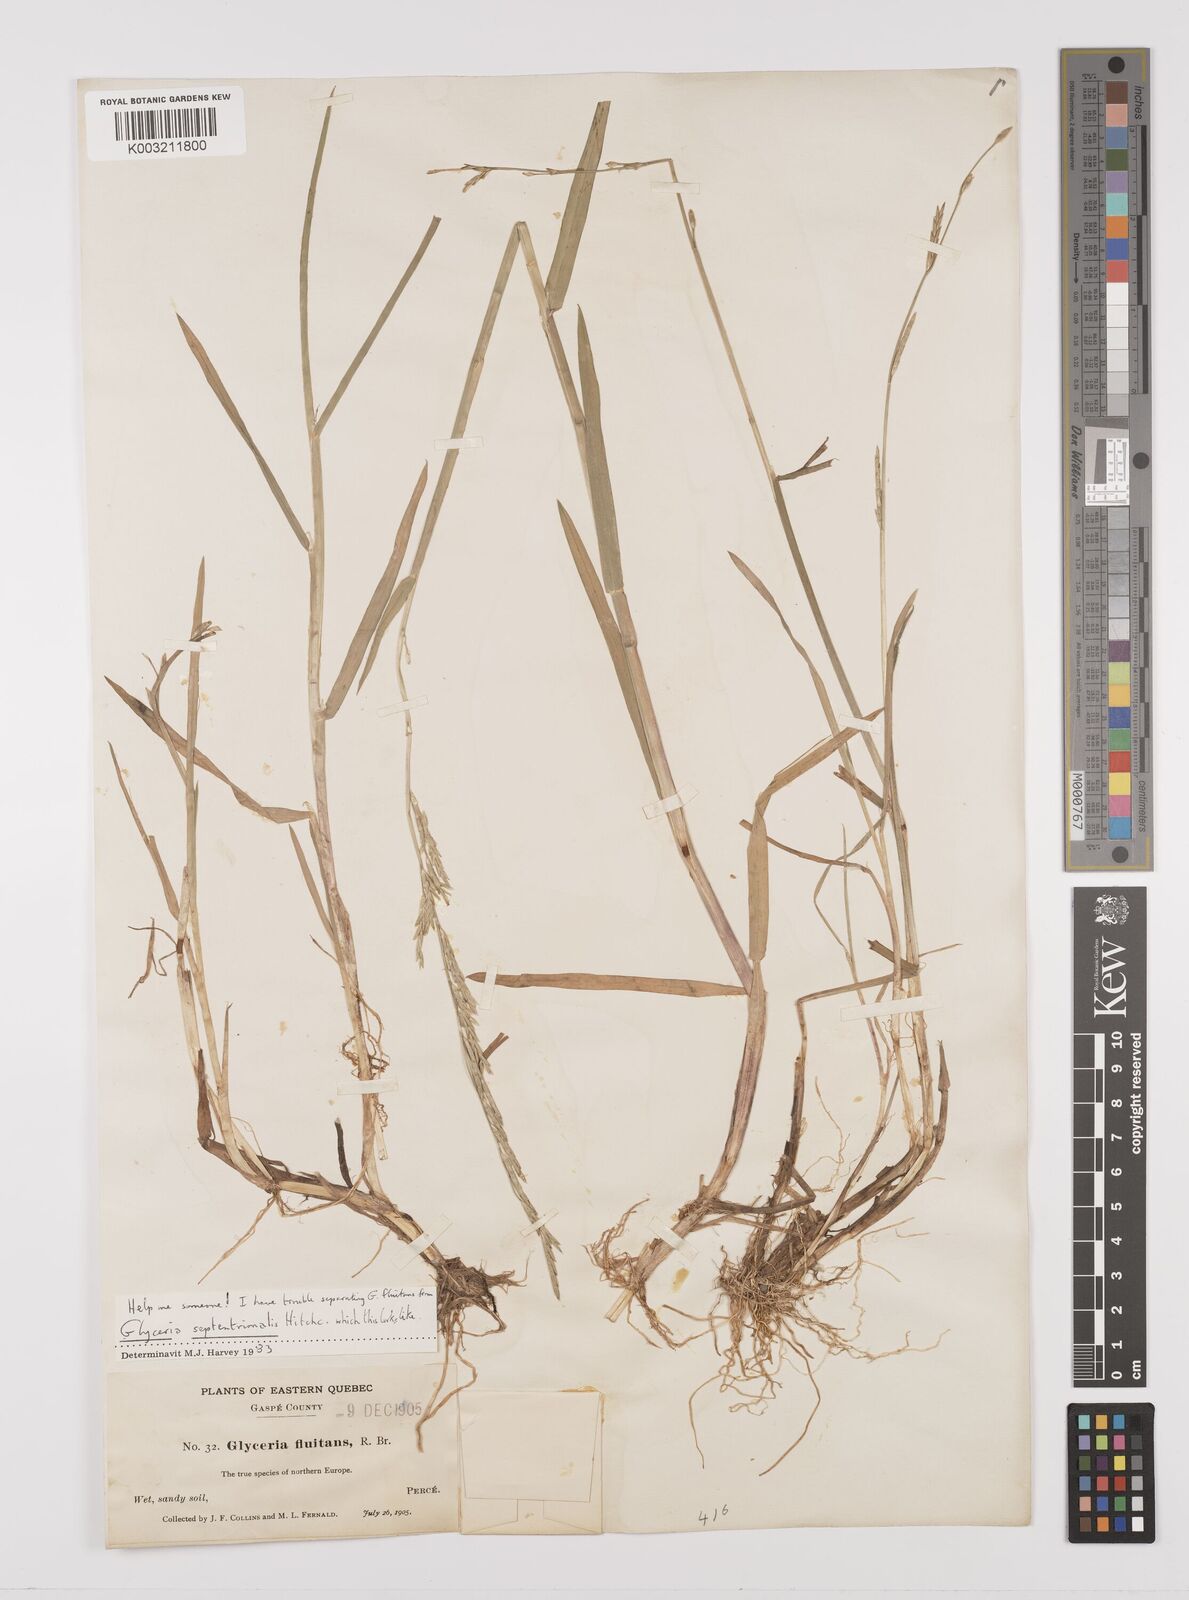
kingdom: Plantae
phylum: Tracheophyta
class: Liliopsida
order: Poales
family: Poaceae
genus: Glyceria
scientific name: Glyceria fluitans
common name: Floating sweet-grass
